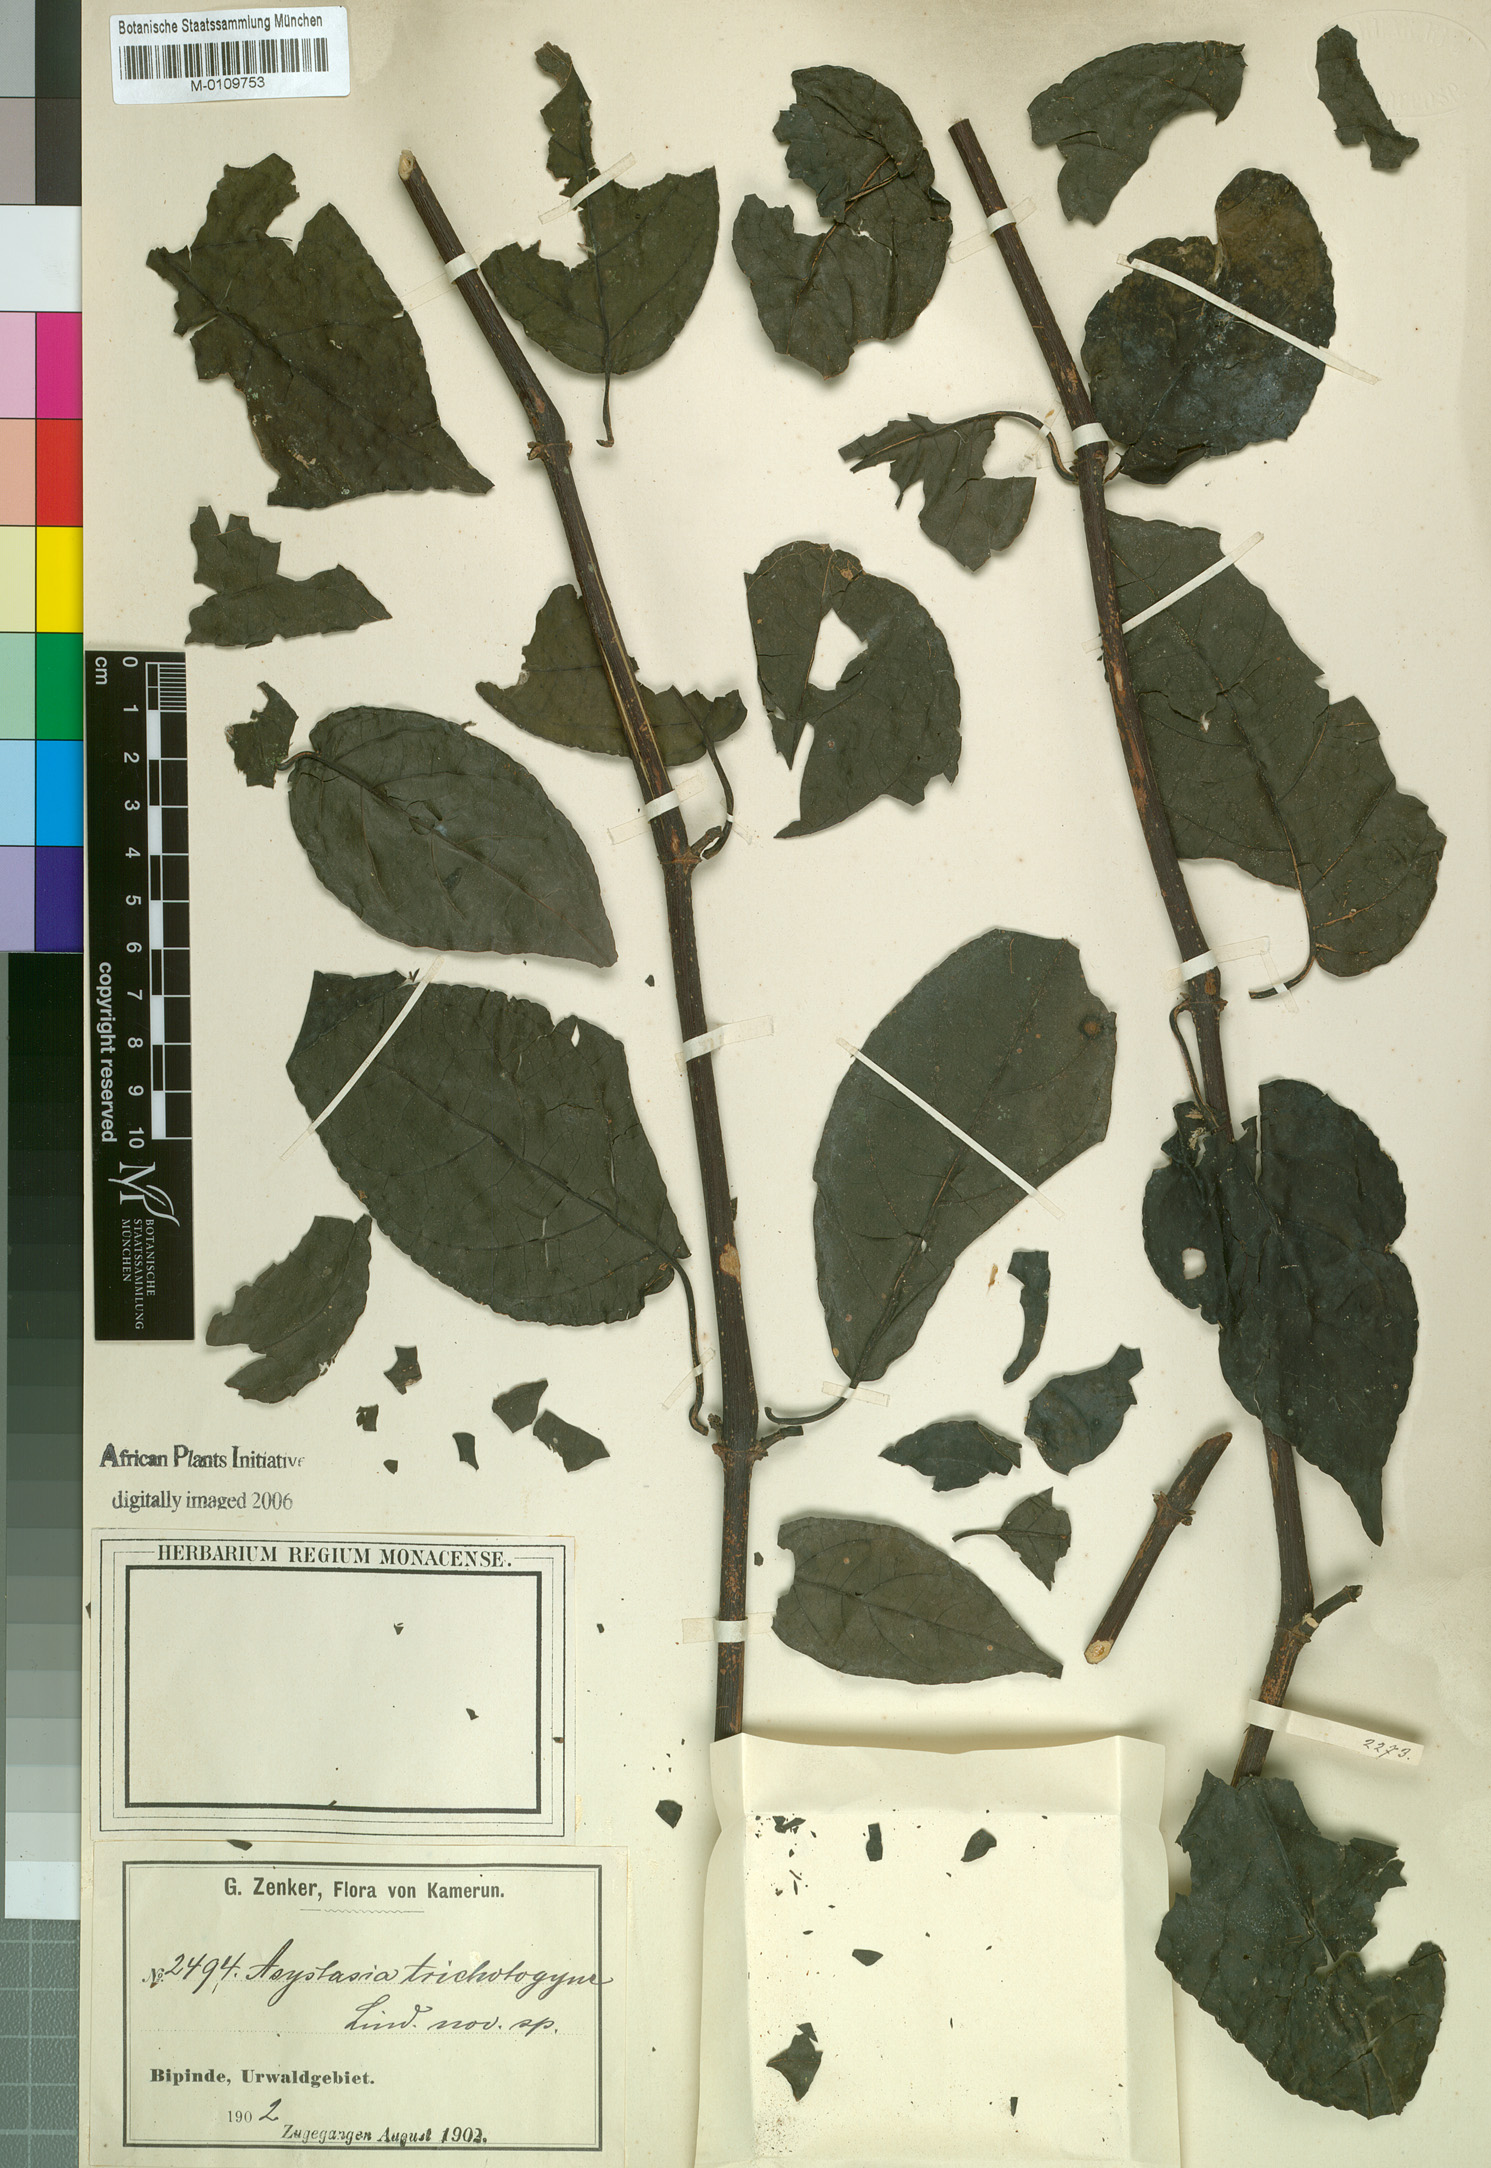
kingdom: Plantae
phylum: Tracheophyta
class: Magnoliopsida
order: Lamiales
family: Acanthaceae
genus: Asystasia
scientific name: Asystasia trichotogyne
